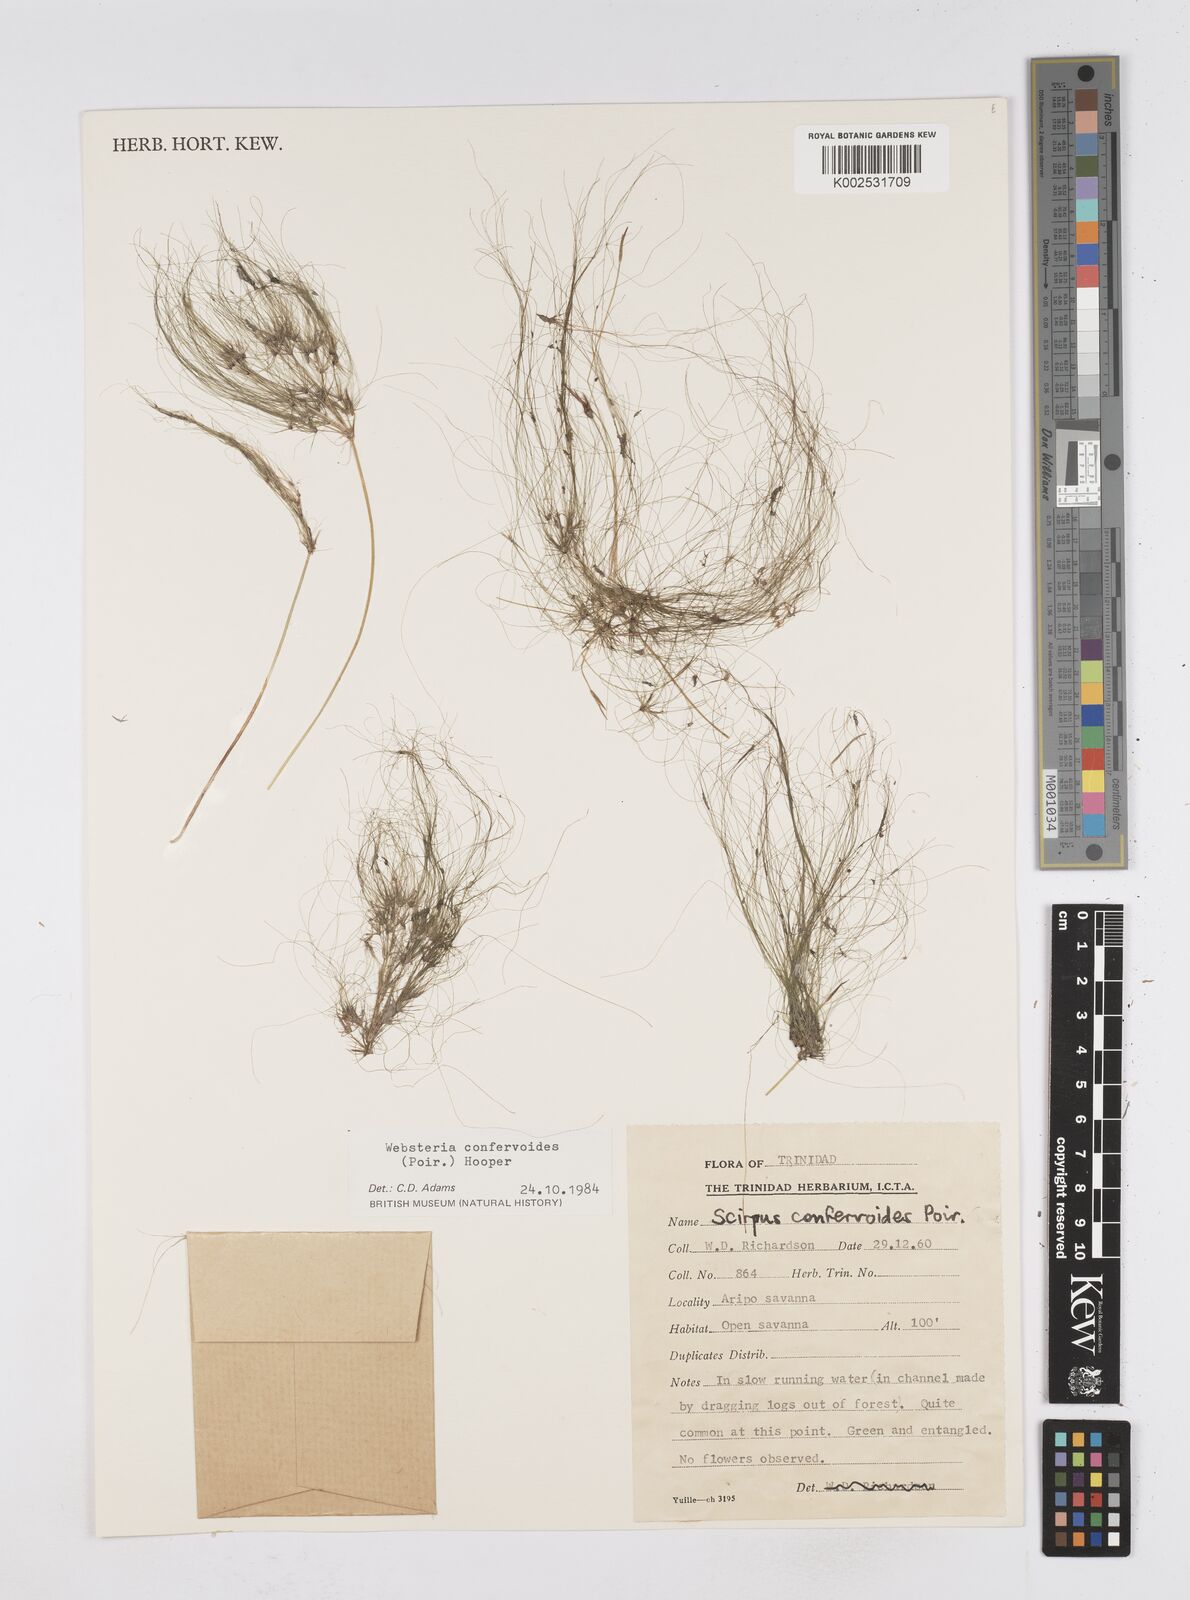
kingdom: Plantae
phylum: Tracheophyta
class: Liliopsida
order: Poales
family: Cyperaceae
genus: Eleocharis
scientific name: Eleocharis confervoides
